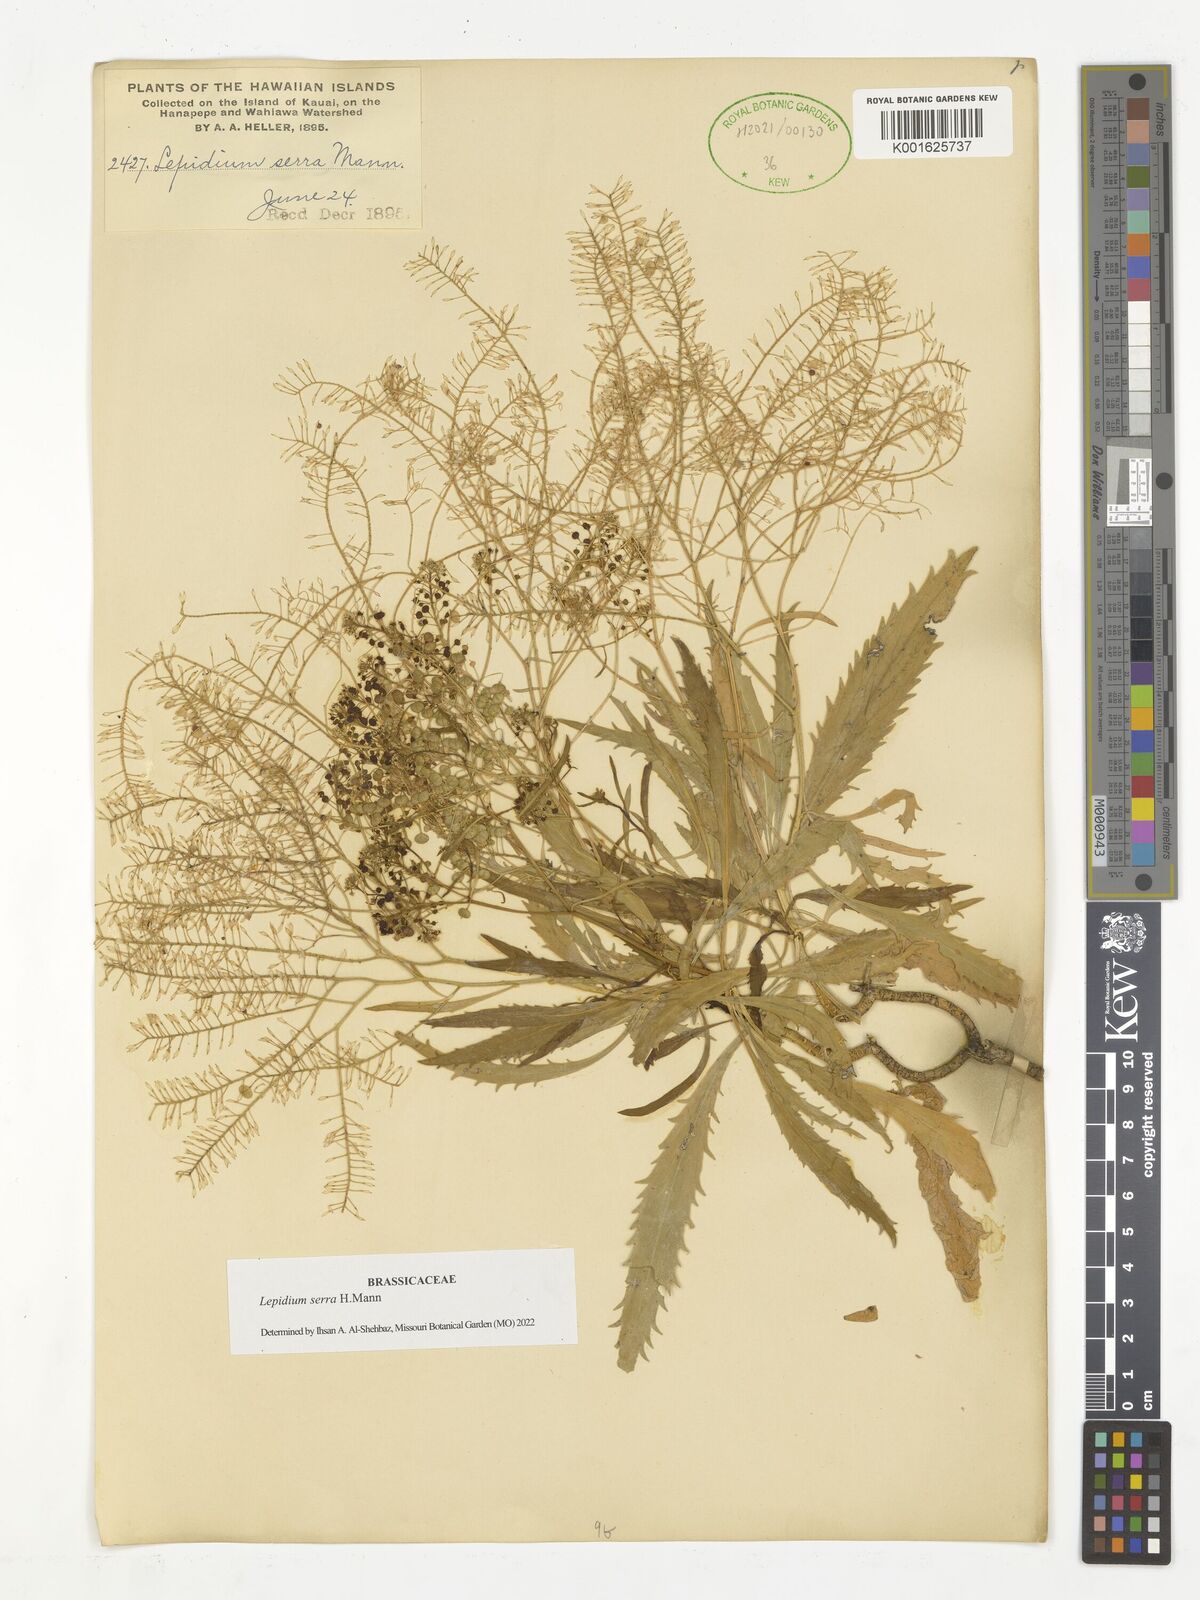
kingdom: Plantae
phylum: Tracheophyta
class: Magnoliopsida
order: Brassicales
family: Brassicaceae
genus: Lepidium
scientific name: Lepidium serra
